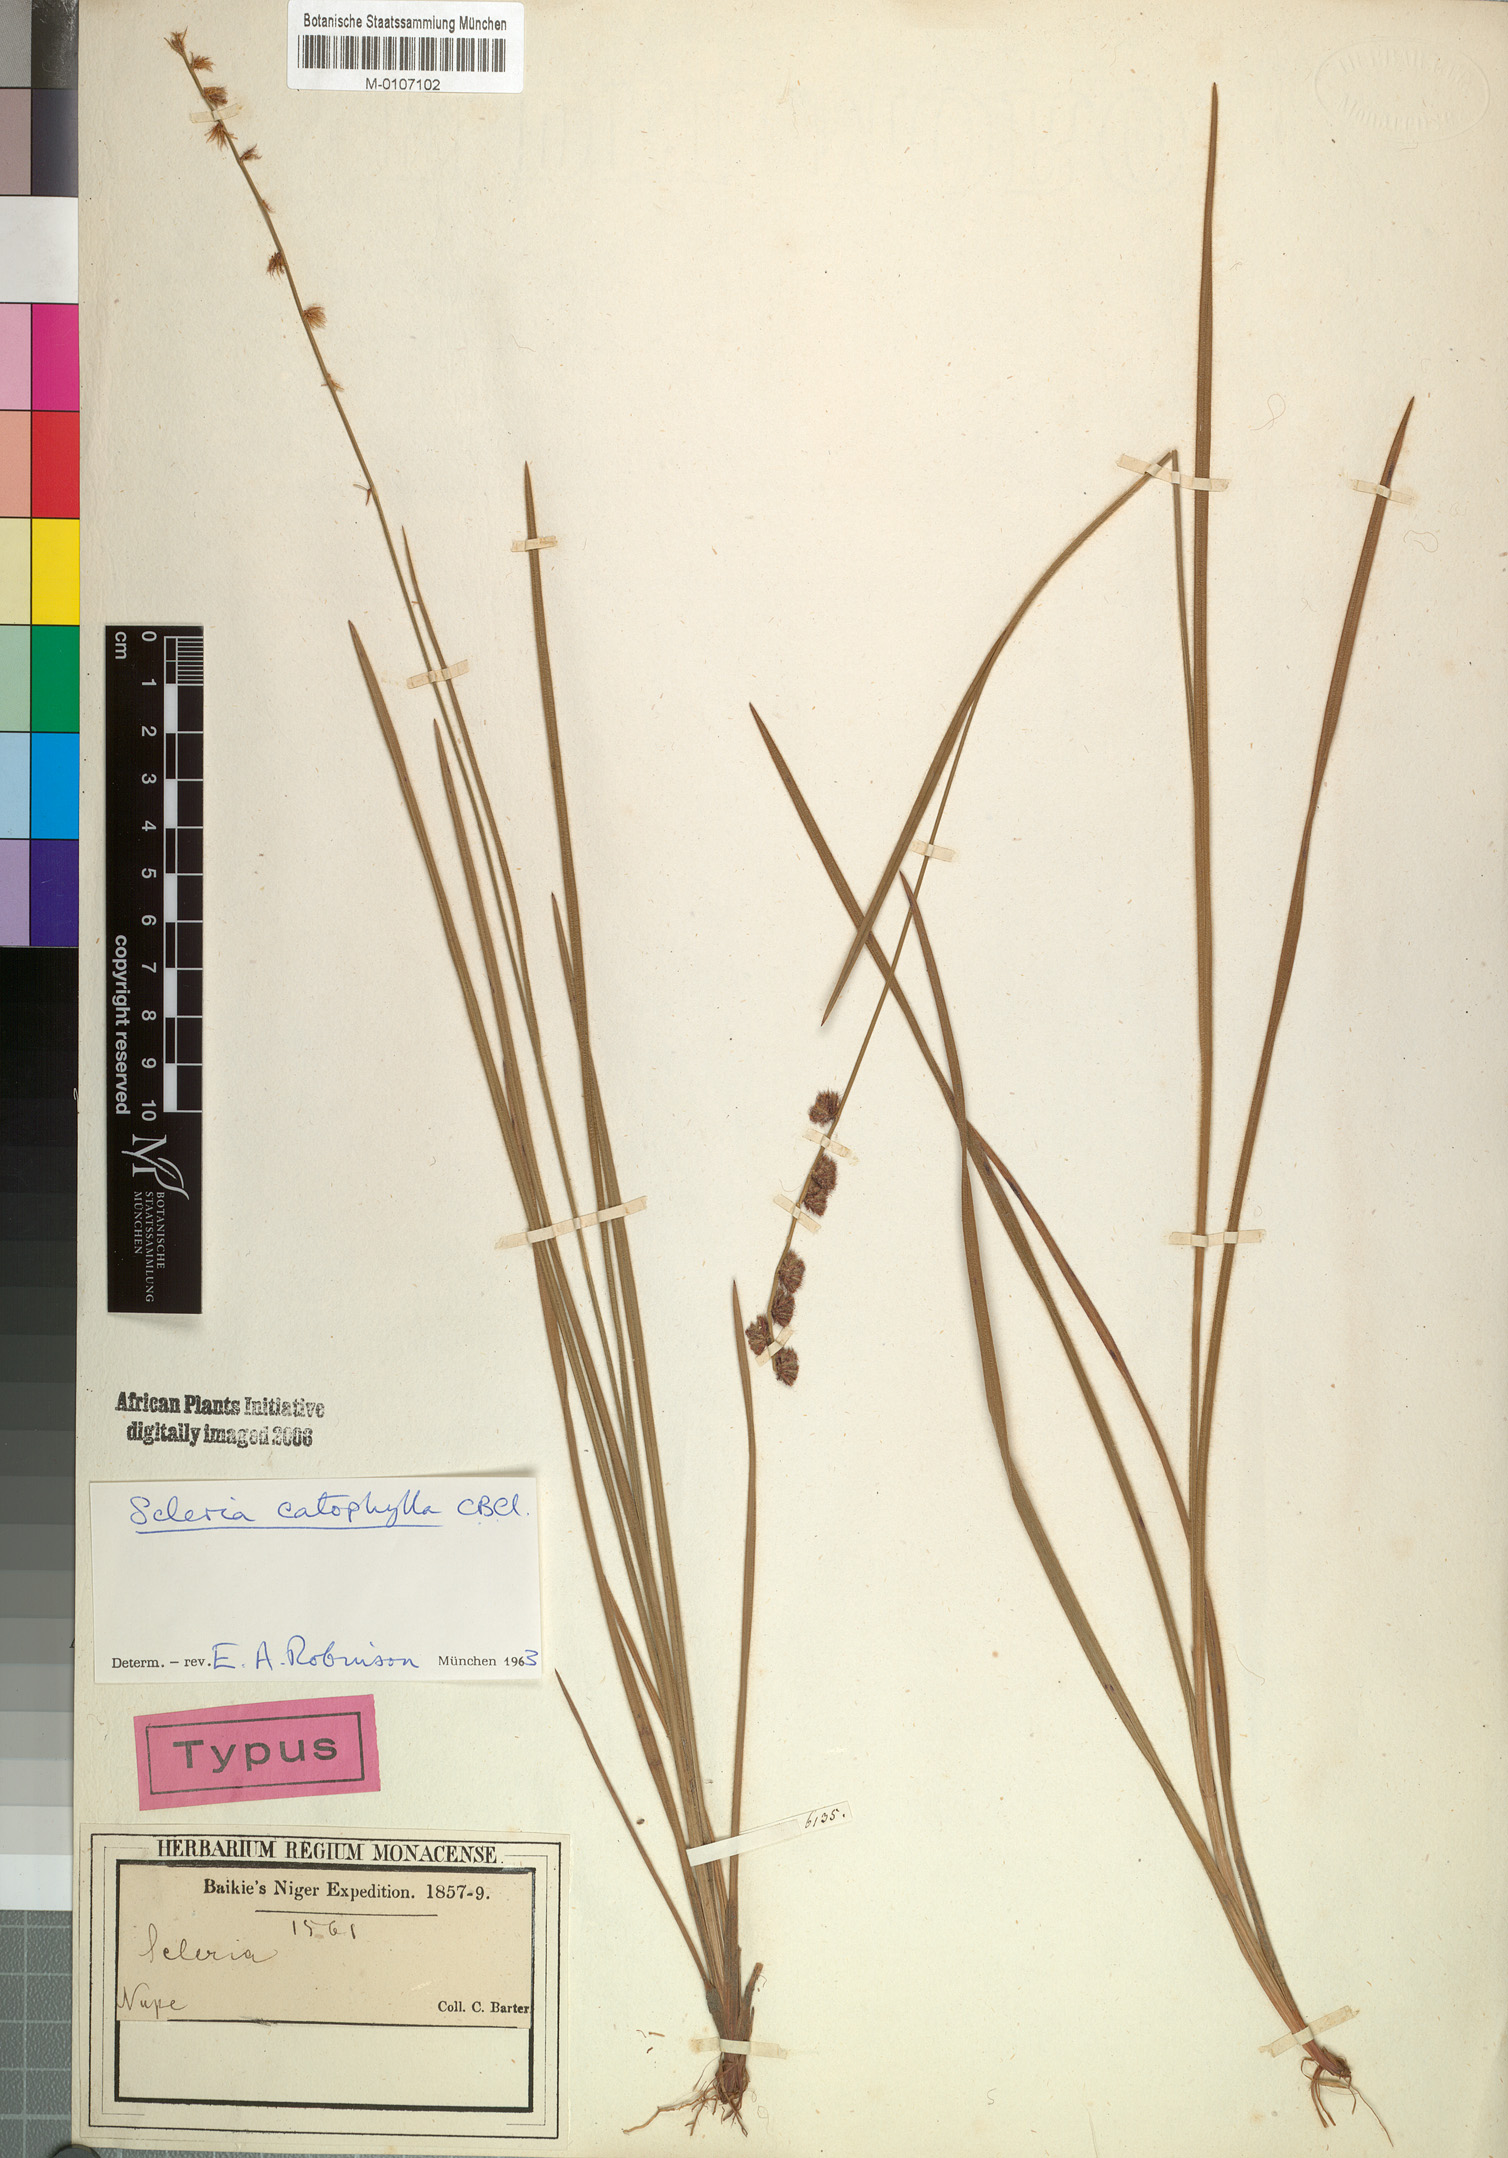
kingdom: Plantae
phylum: Tracheophyta
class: Liliopsida
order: Poales
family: Cyperaceae
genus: Scleria
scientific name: Scleria catophylla
